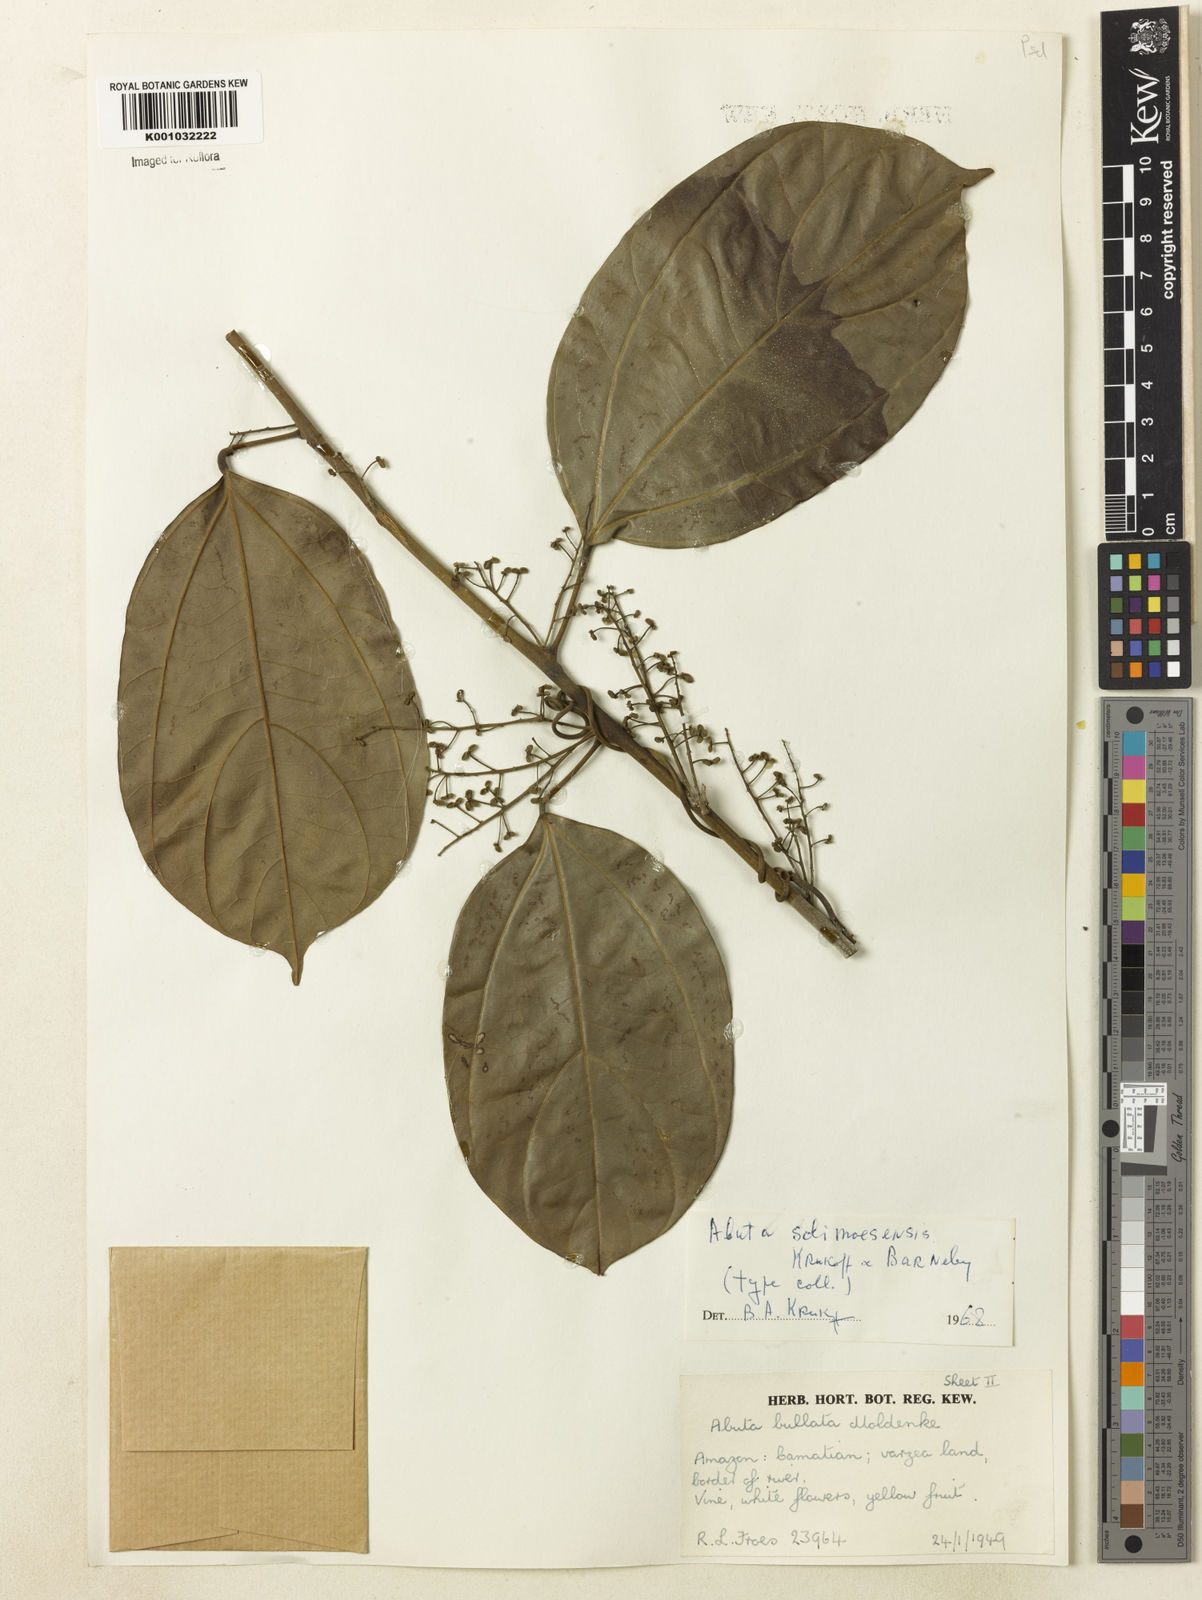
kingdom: Plantae
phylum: Tracheophyta
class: Magnoliopsida
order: Ranunculales
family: Menispermaceae
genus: Abuta
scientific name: Abuta solimoesensis
